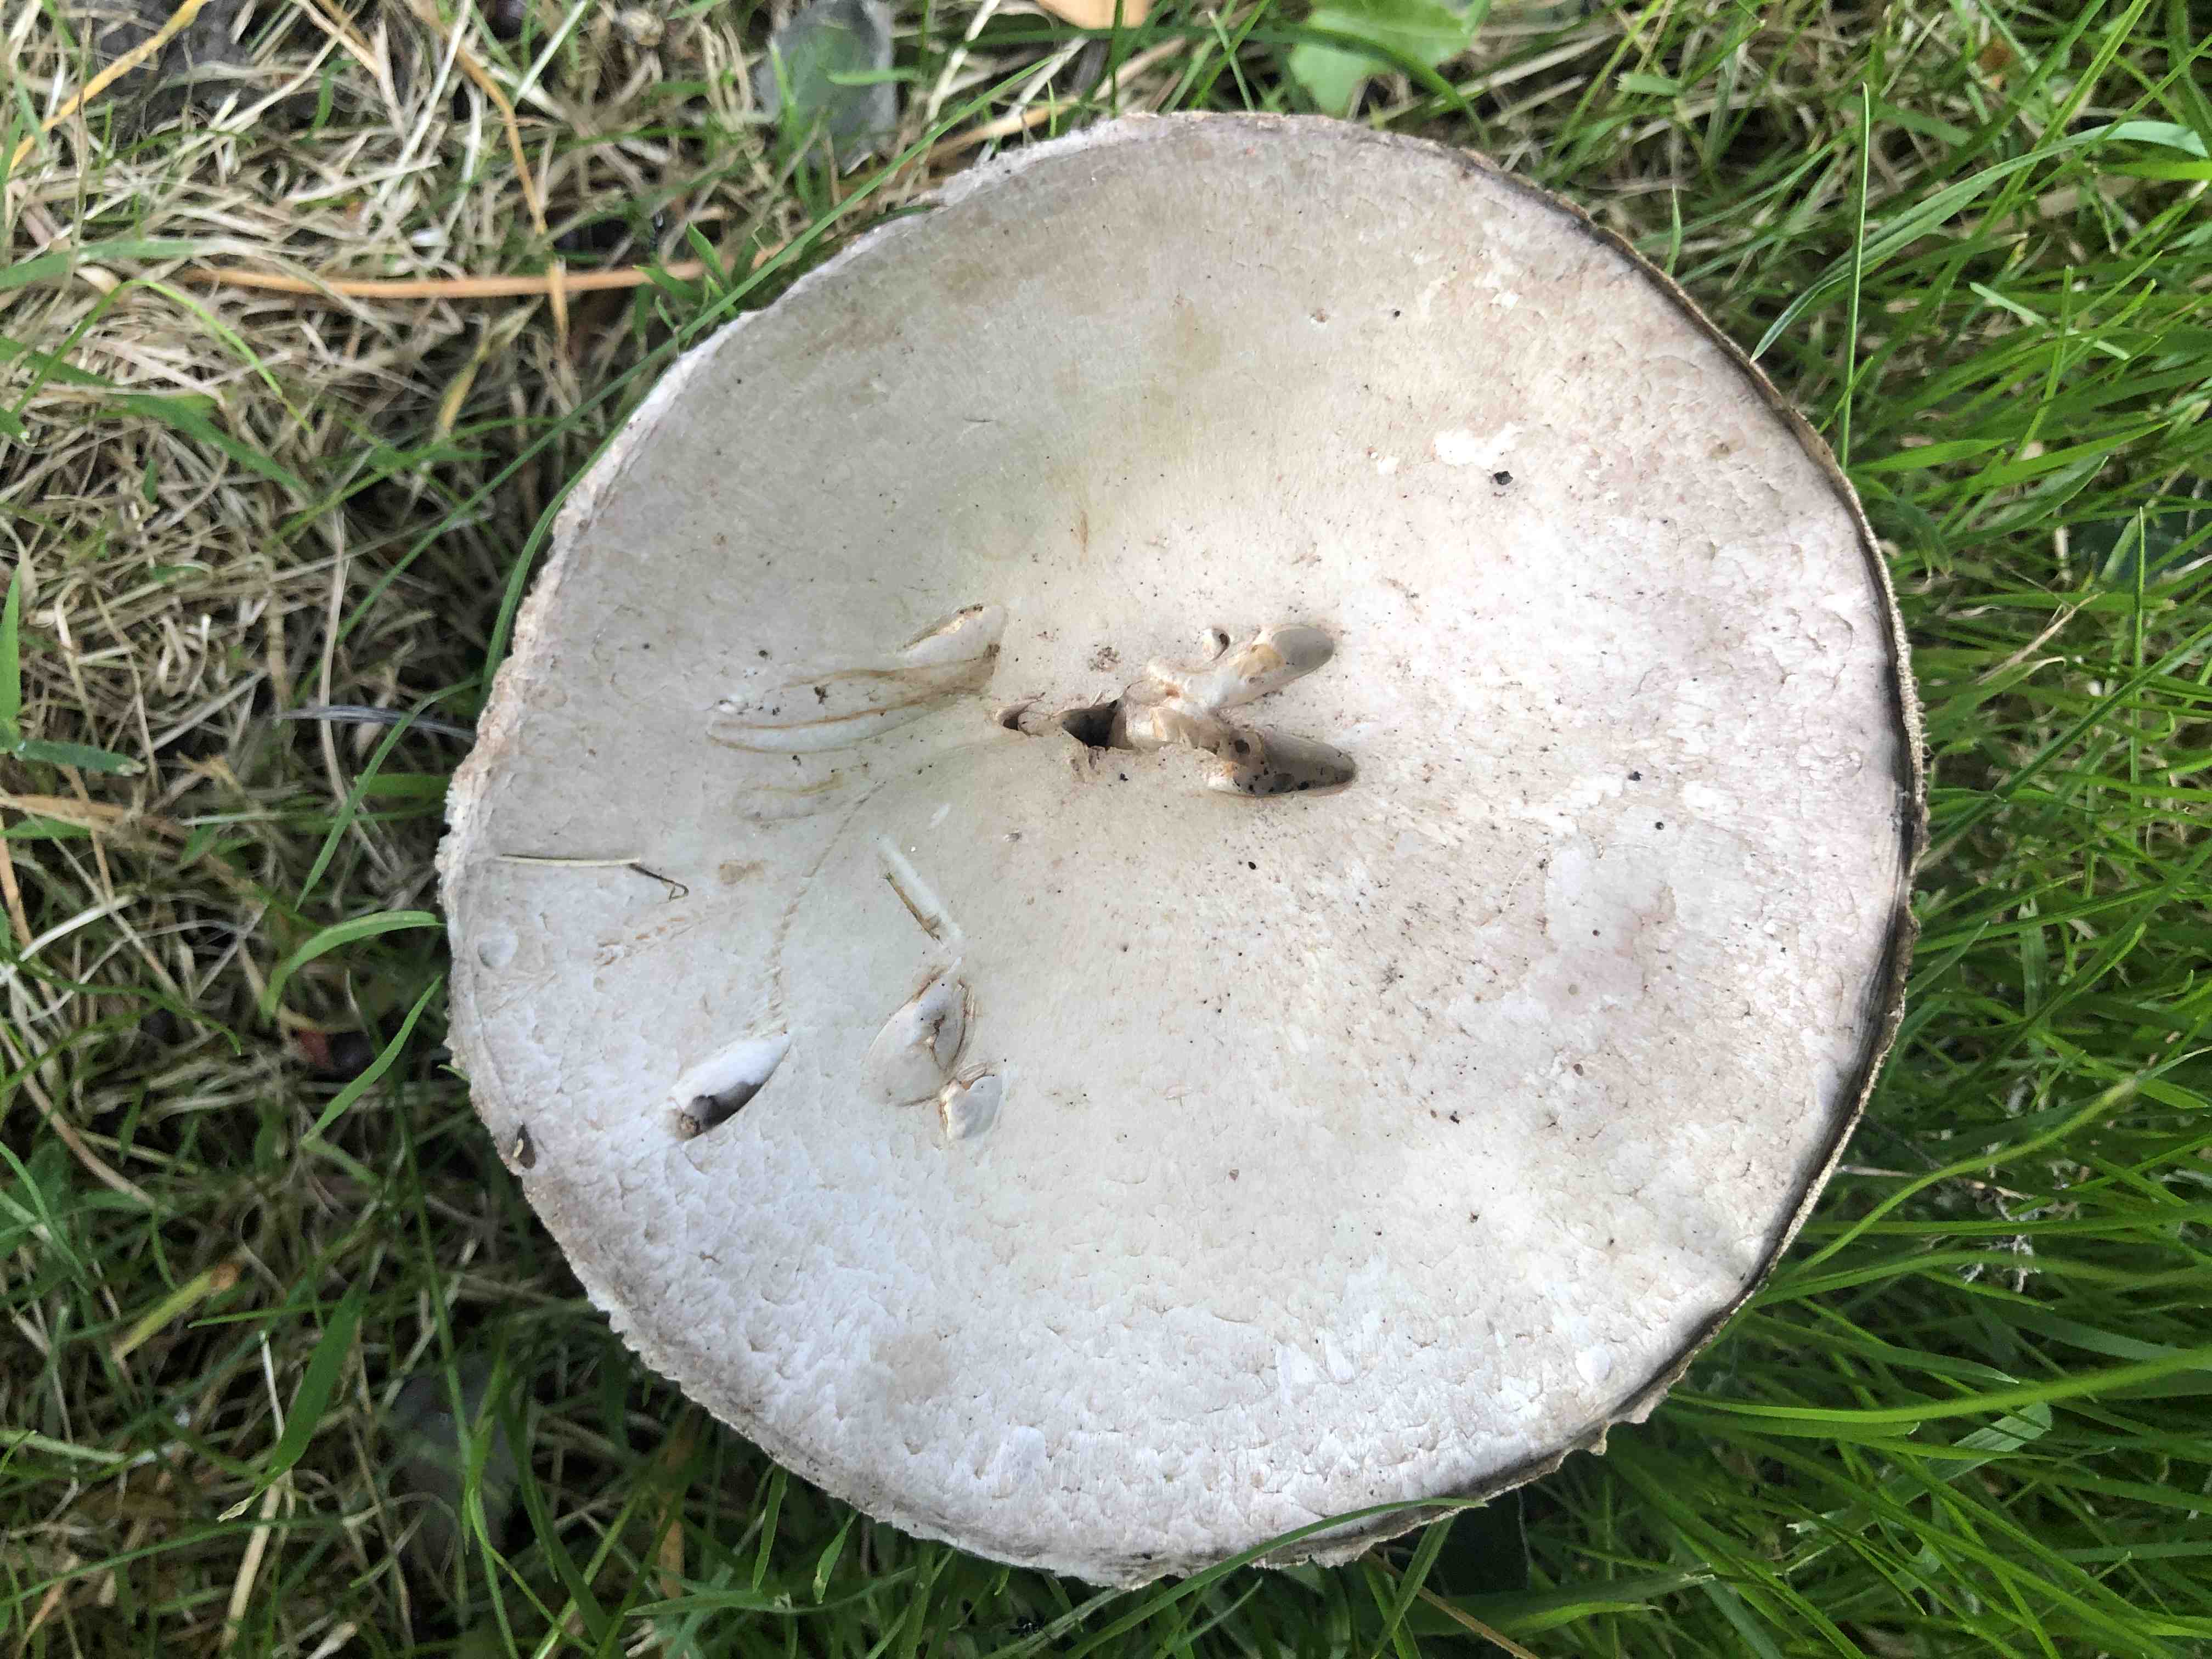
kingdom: Fungi
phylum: Basidiomycota
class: Agaricomycetes
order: Agaricales
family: Agaricaceae
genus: Agaricus
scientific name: Agaricus
